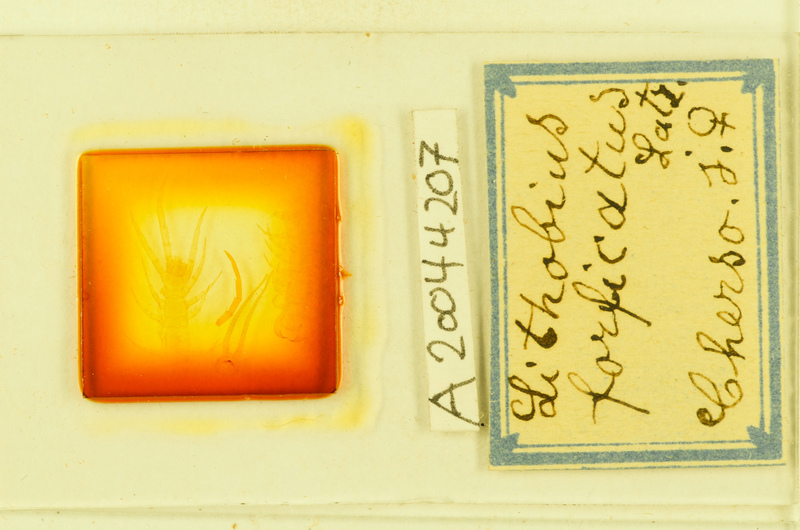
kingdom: Animalia
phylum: Arthropoda
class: Chilopoda
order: Lithobiomorpha
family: Lithobiidae
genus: Lithobius
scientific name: Lithobius forficatus
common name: Centipede
